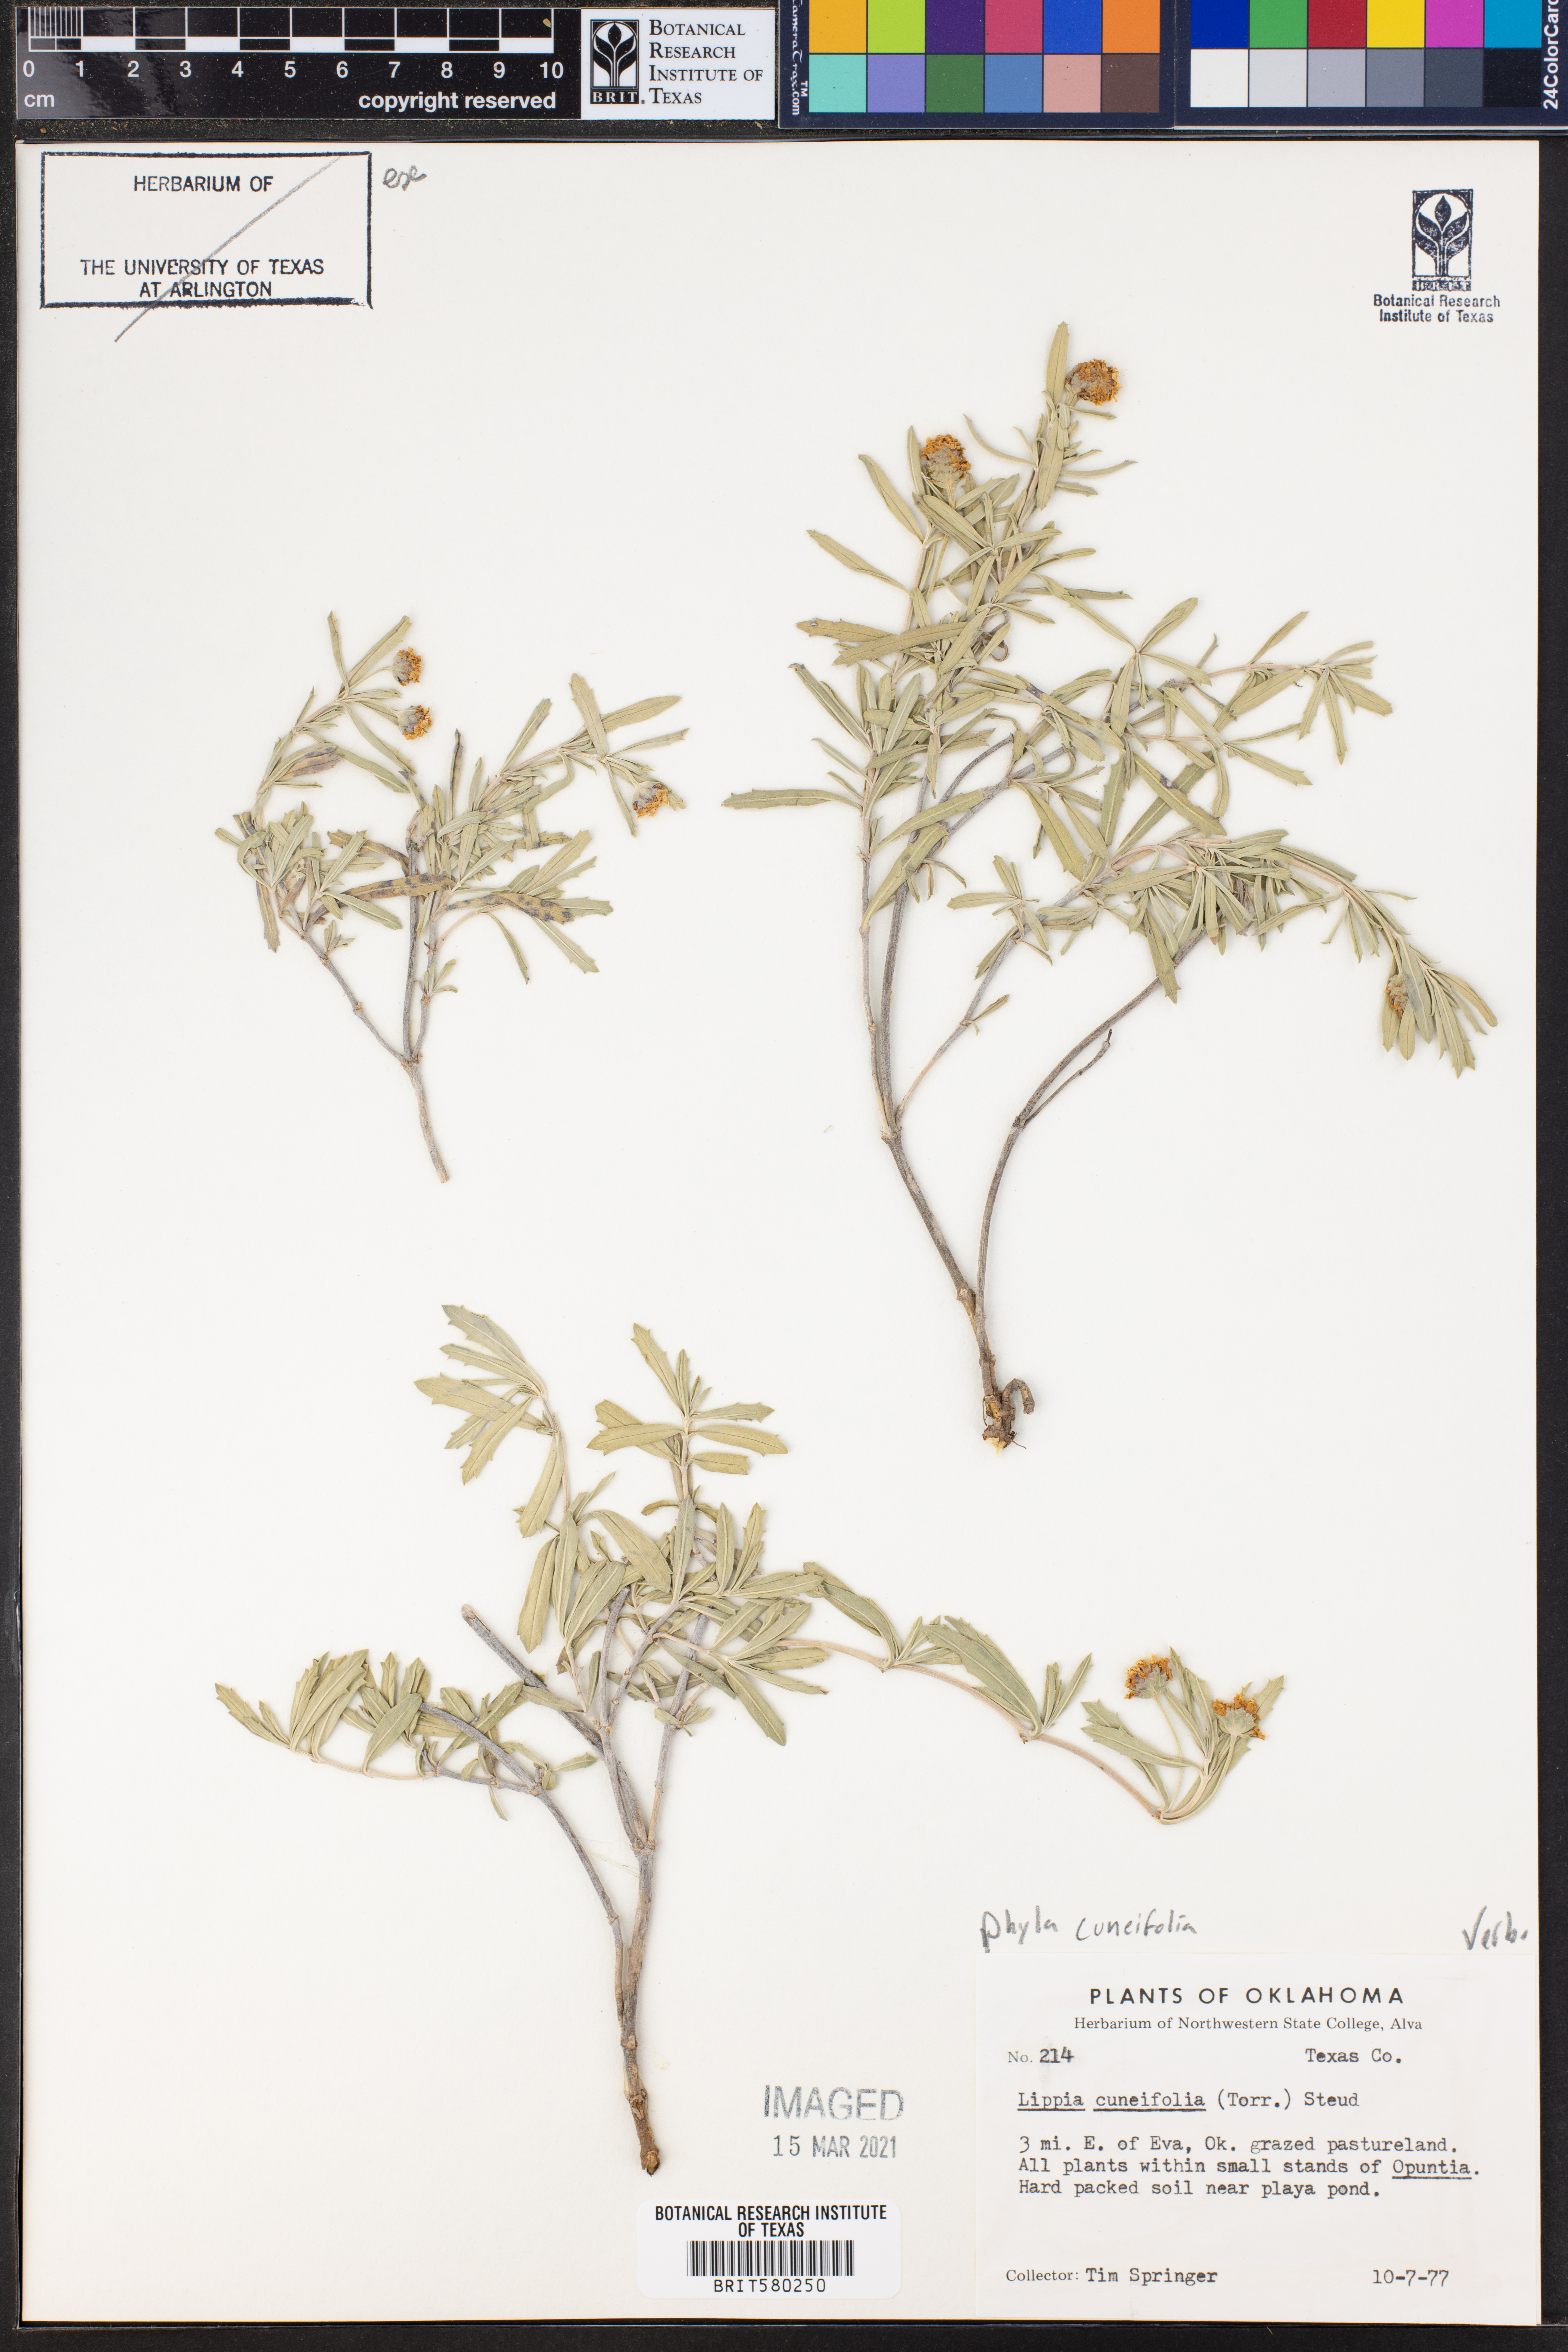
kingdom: Plantae
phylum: Tracheophyta
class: Magnoliopsida
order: Lamiales
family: Verbenaceae
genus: Phyla
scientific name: Phyla cuneifolia
